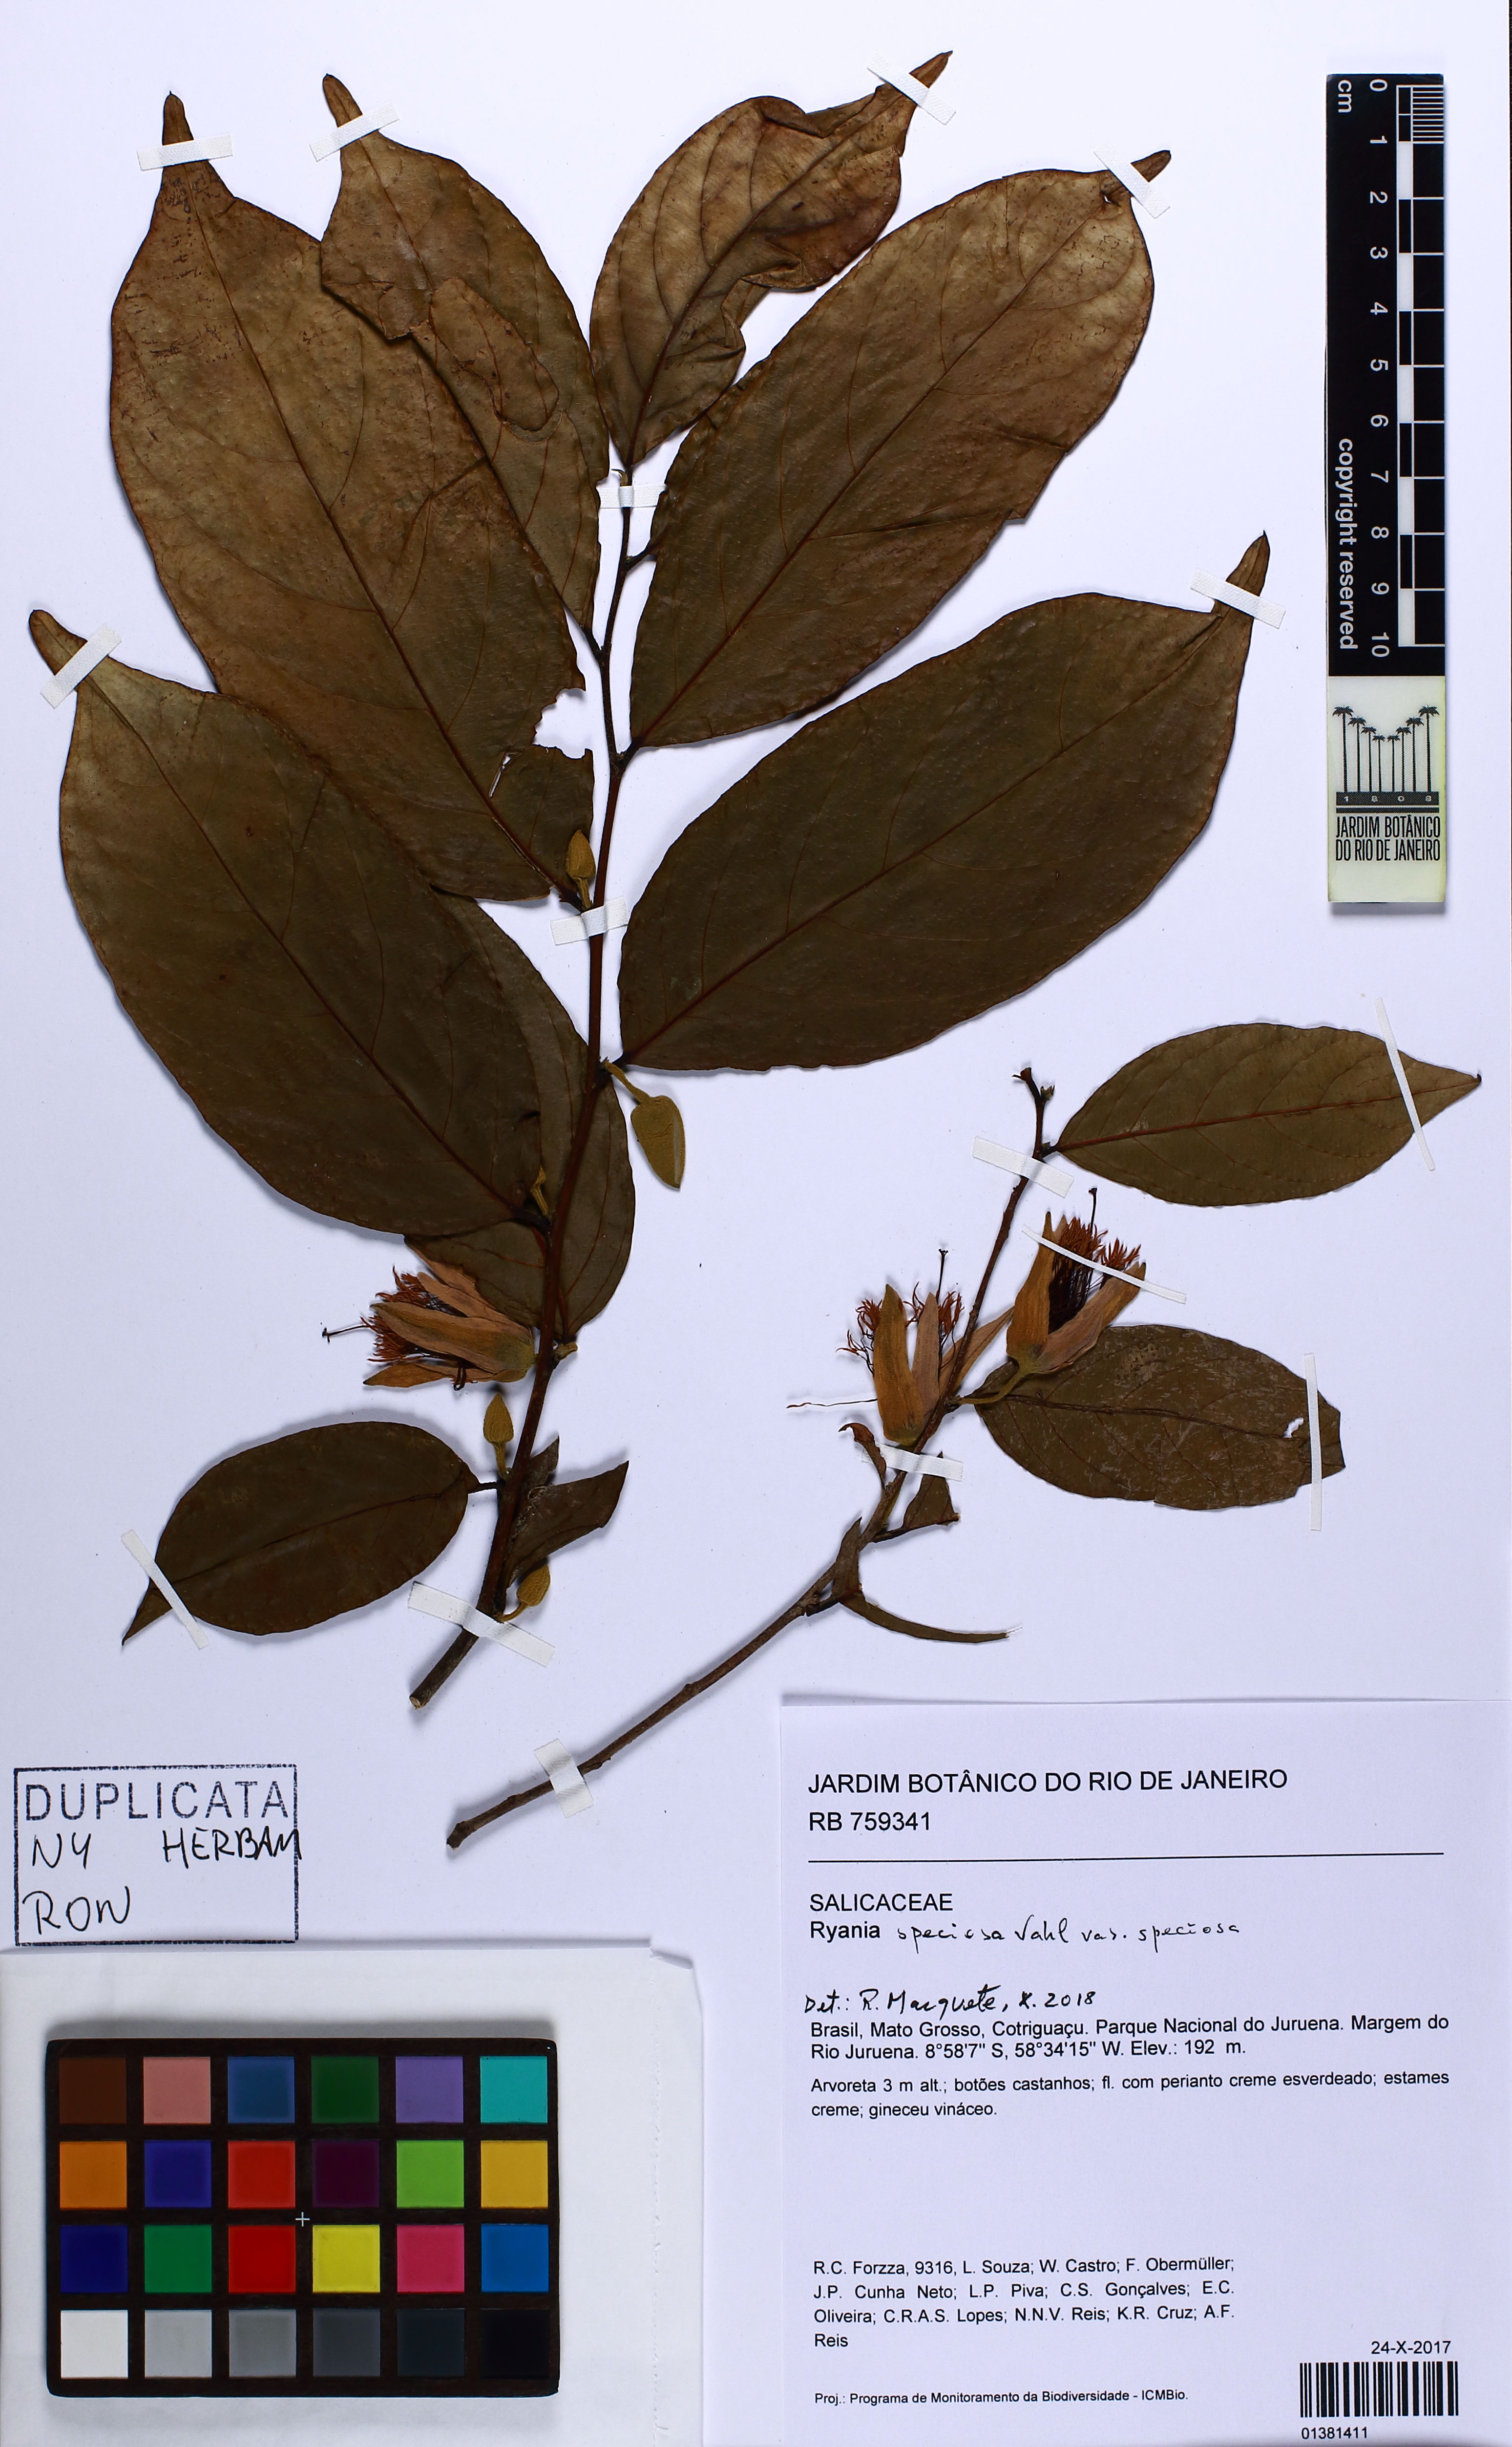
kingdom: Plantae
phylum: Tracheophyta
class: Magnoliopsida
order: Malpighiales
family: Salicaceae
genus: Ryania
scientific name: Ryania speciosa
